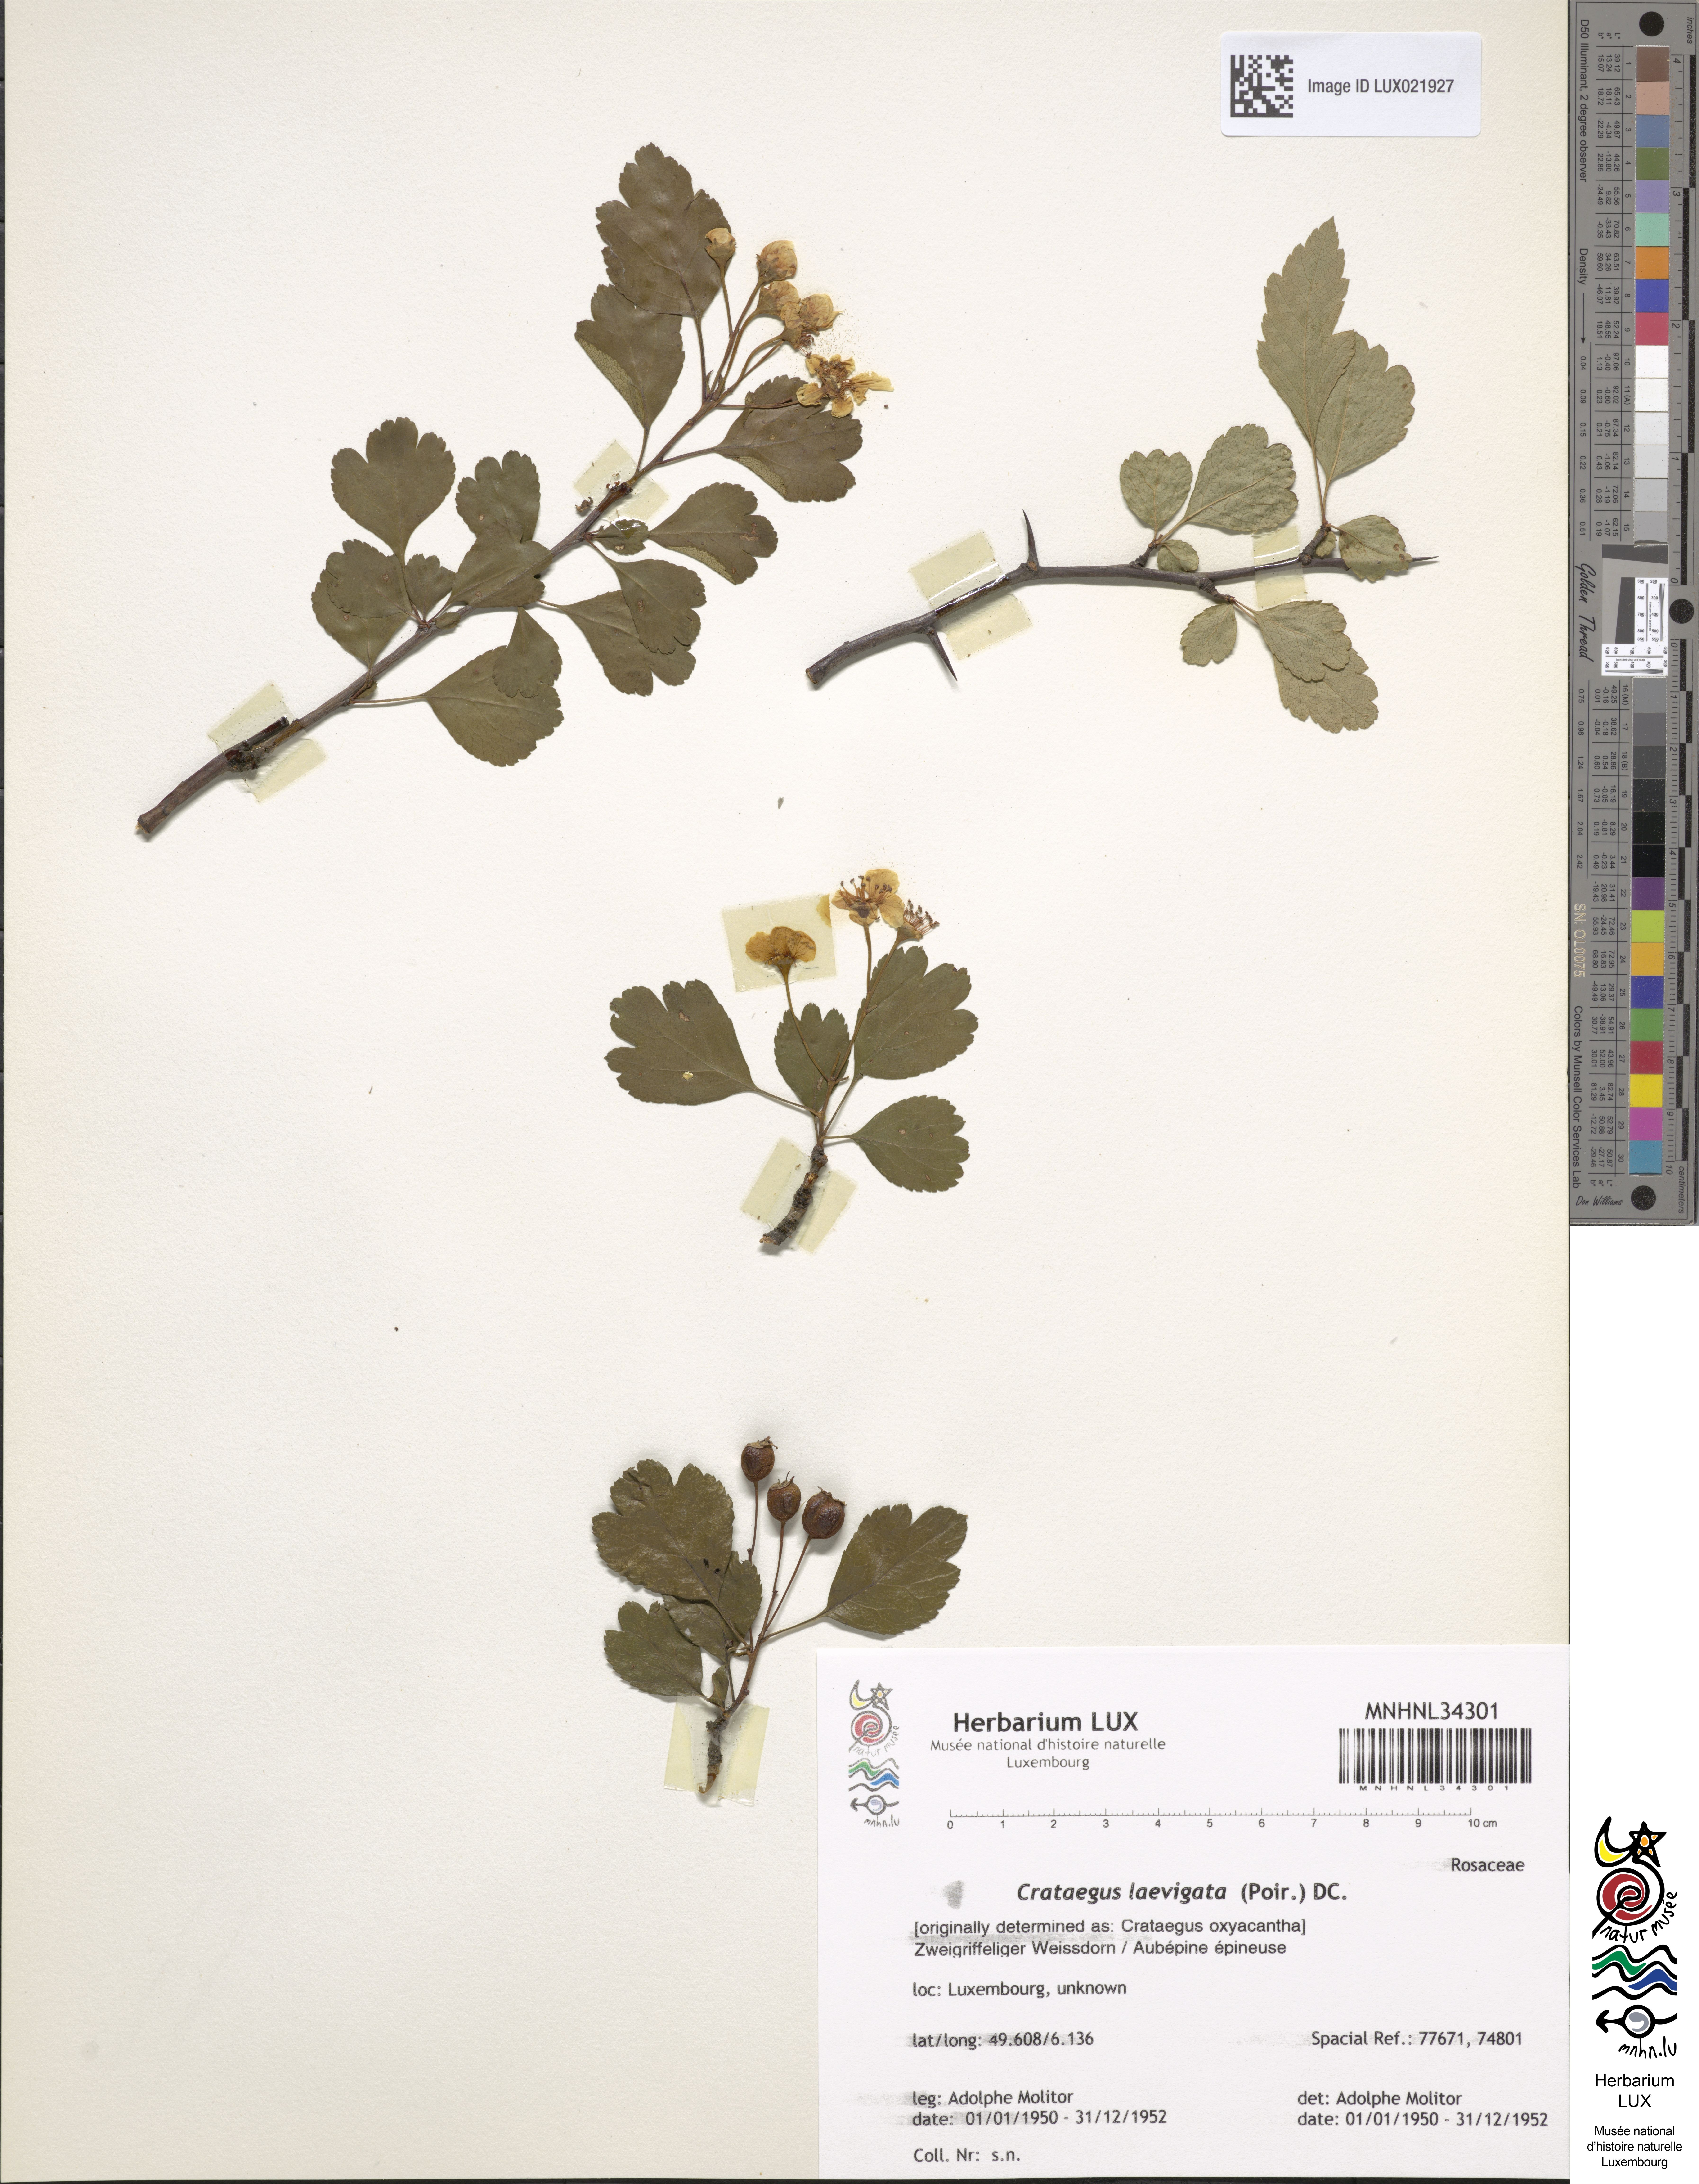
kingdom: Plantae
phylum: Tracheophyta
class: Magnoliopsida
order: Rosales
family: Rosaceae
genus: Crataegus
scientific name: Crataegus
